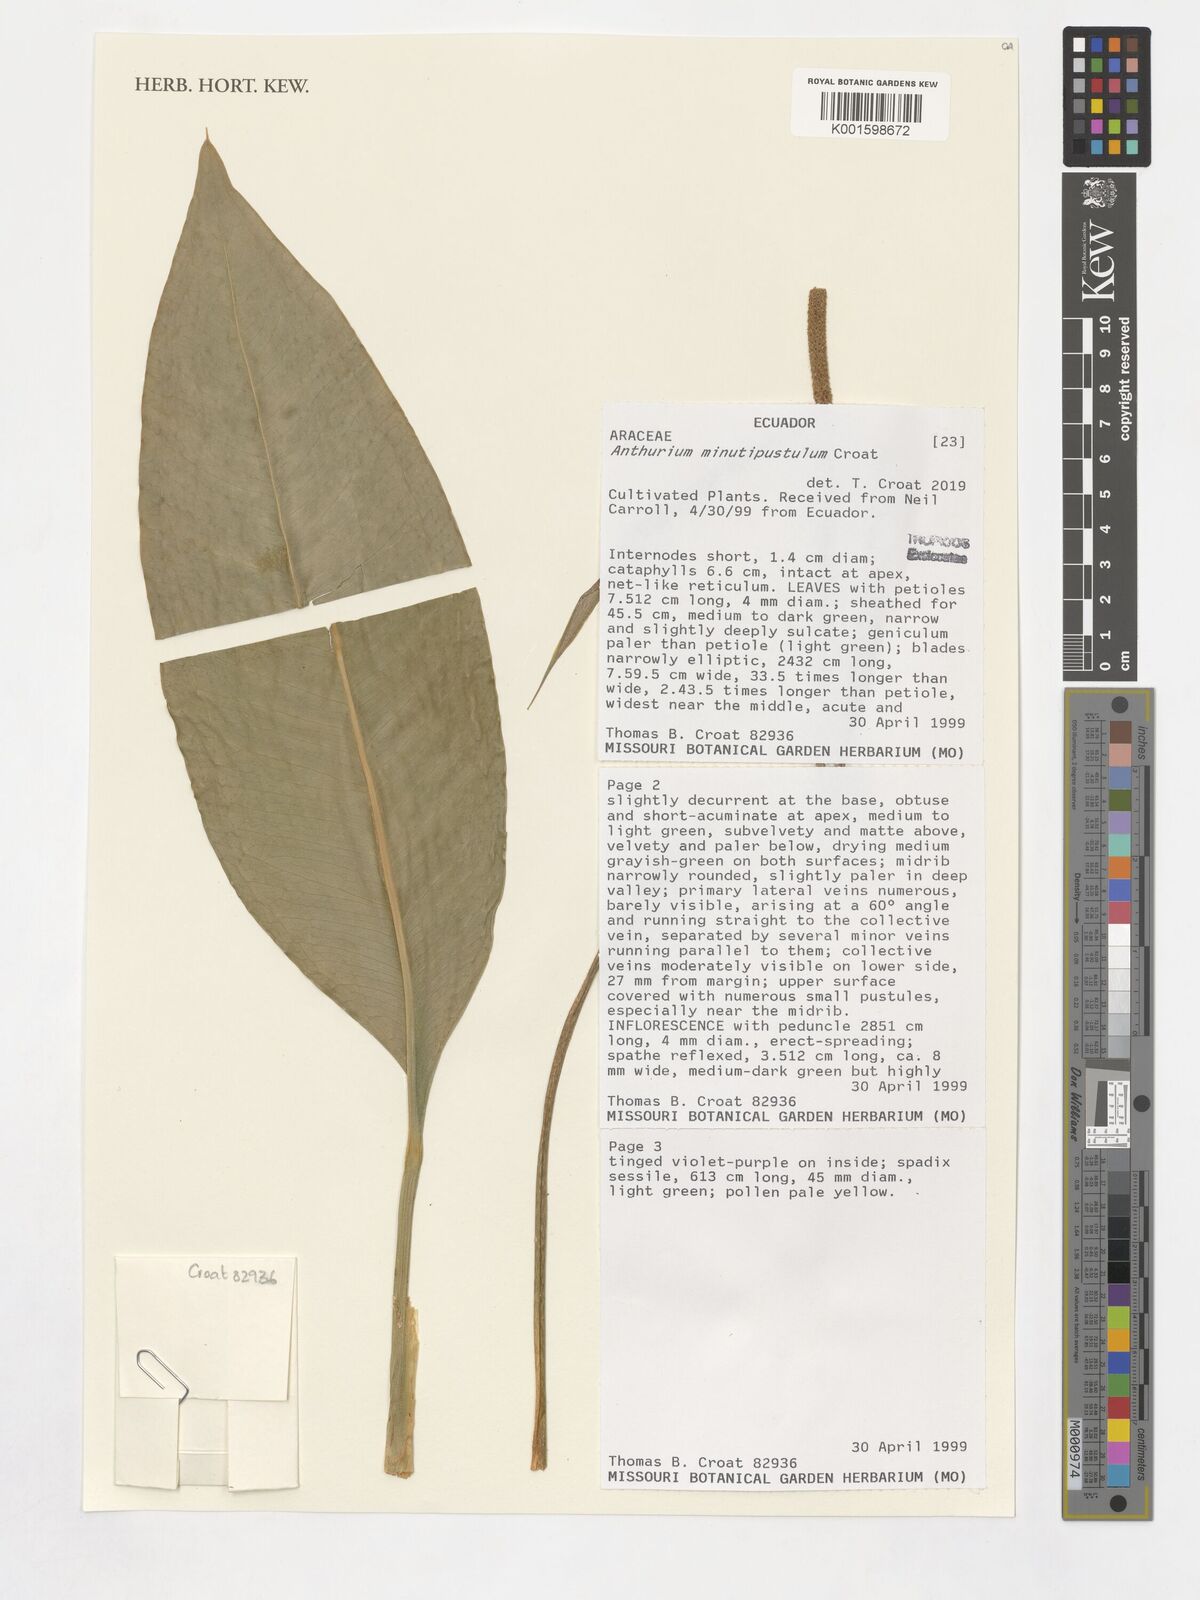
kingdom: Plantae
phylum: Tracheophyta
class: Liliopsida
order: Alismatales
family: Araceae
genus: Anthurium
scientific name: Anthurium
